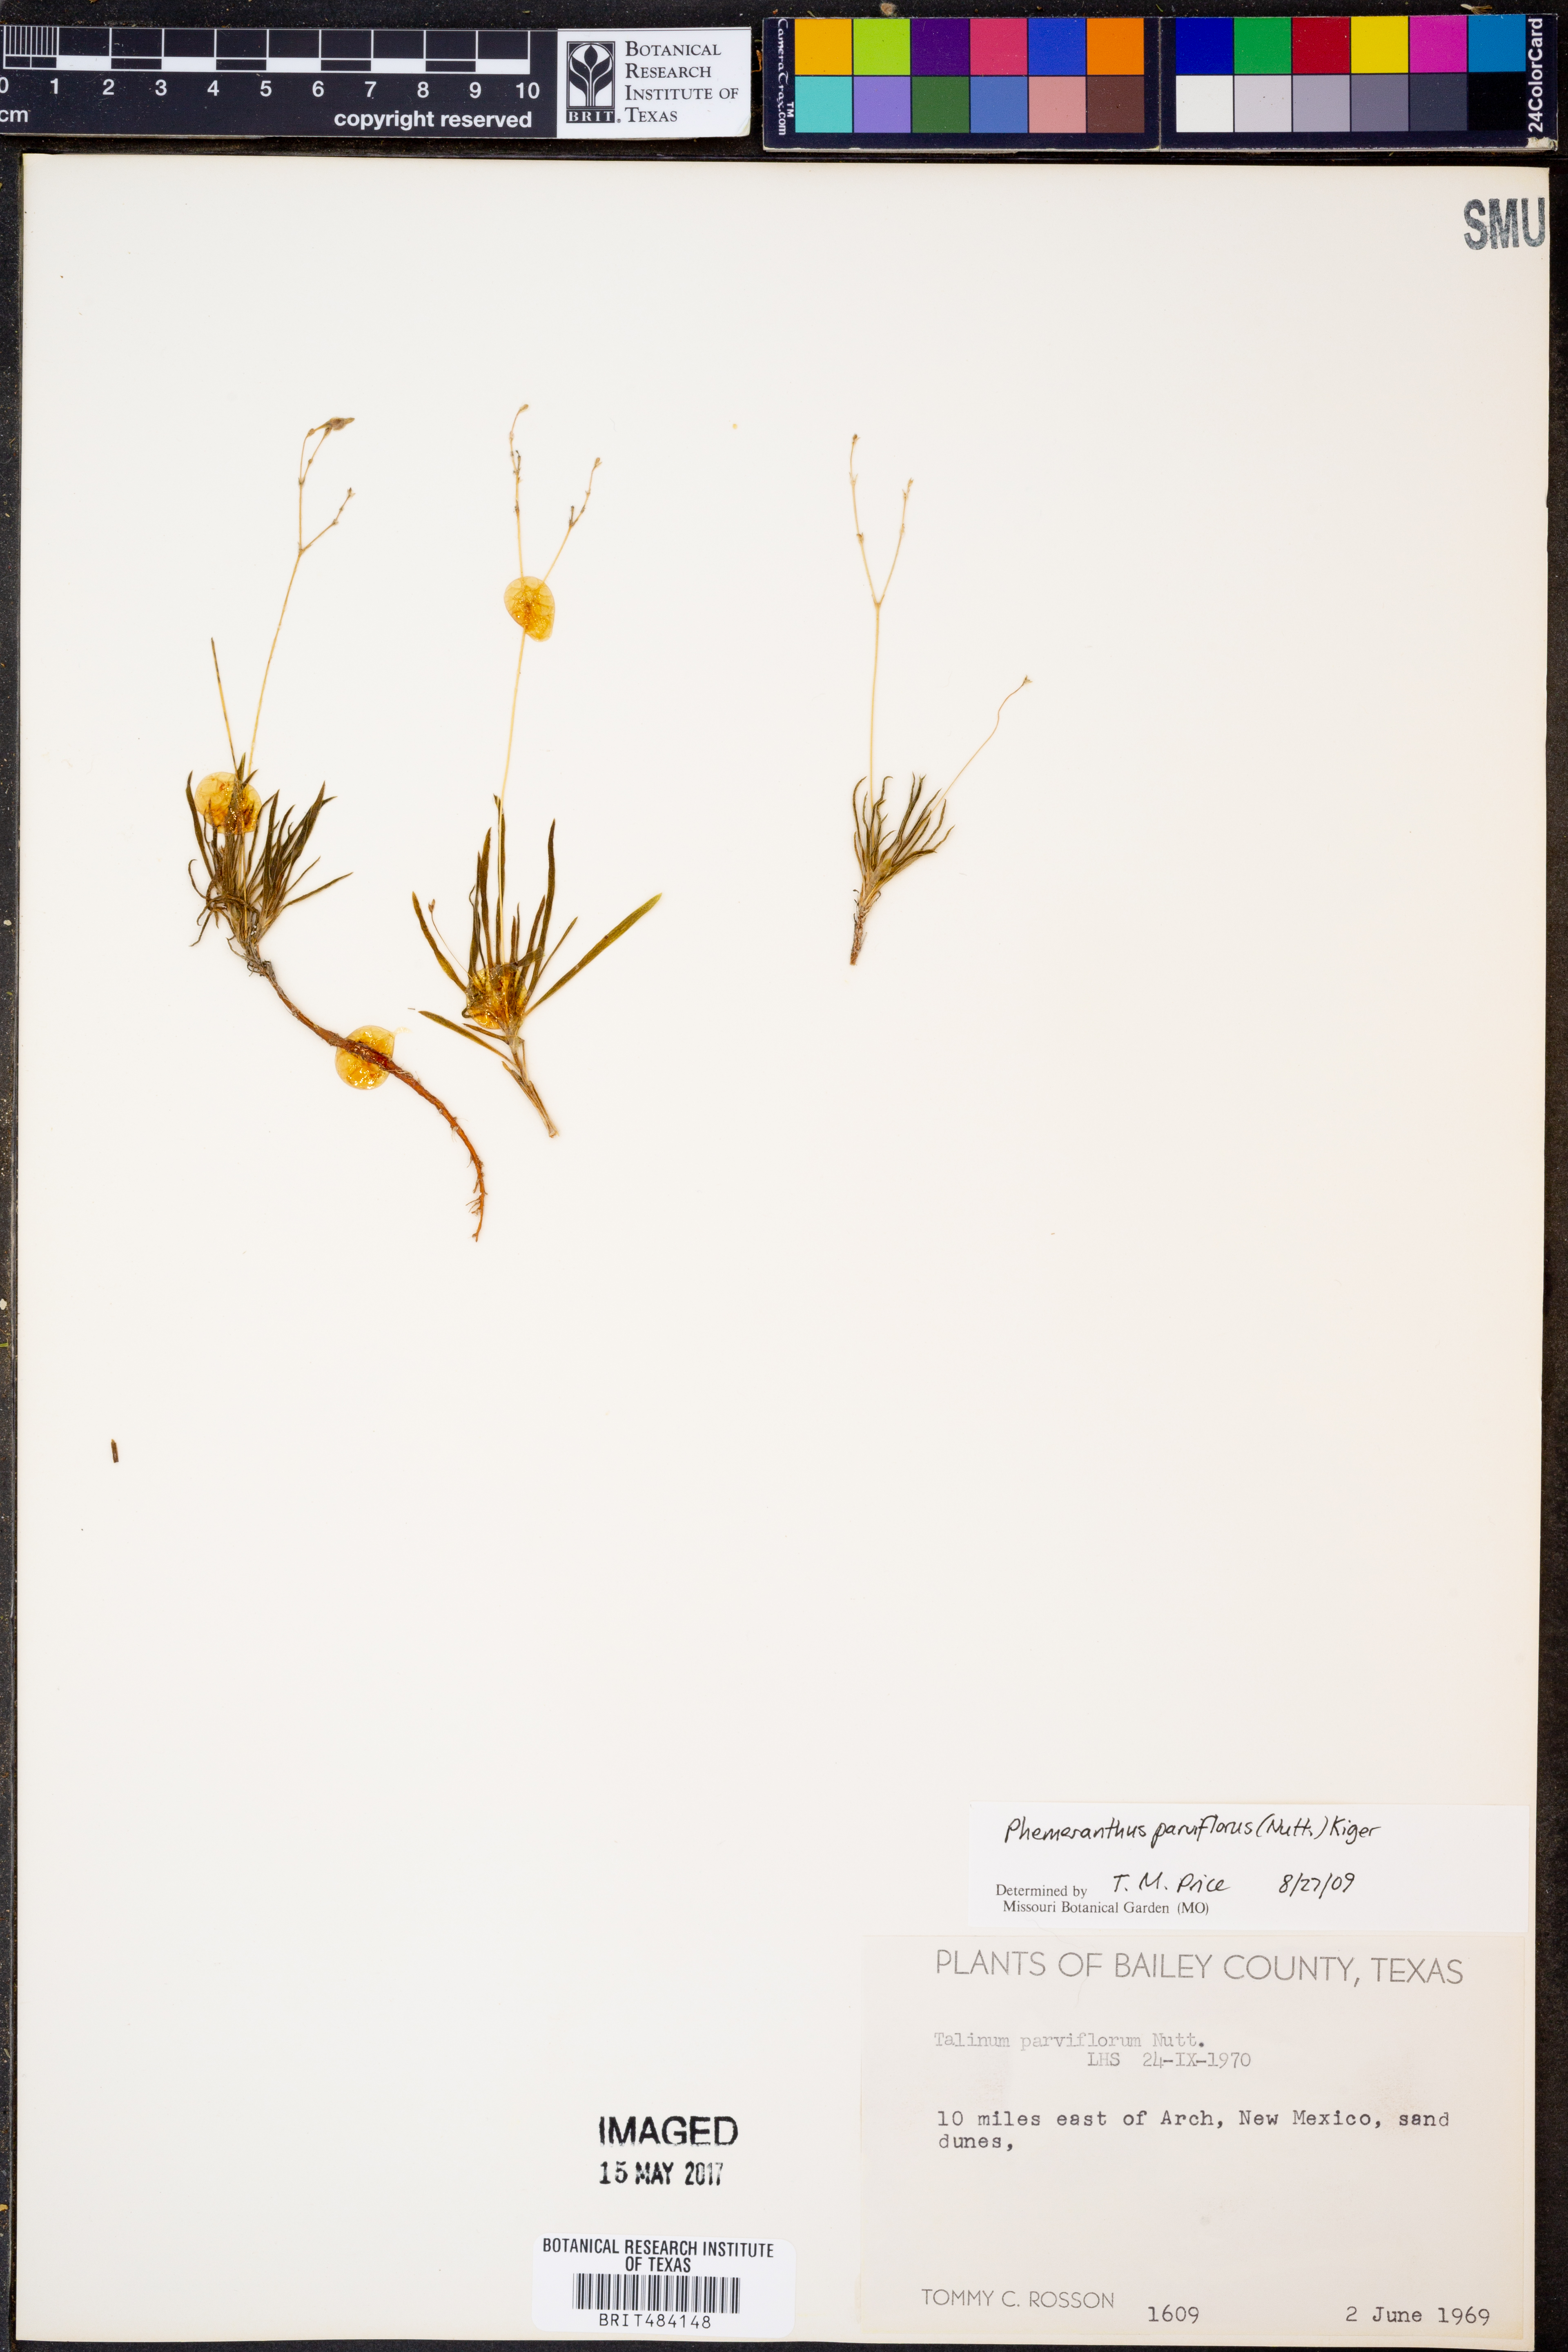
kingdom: Plantae
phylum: Tracheophyta
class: Magnoliopsida
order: Caryophyllales
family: Montiaceae
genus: Phemeranthus
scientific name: Phemeranthus parviflorus
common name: Sunbright
